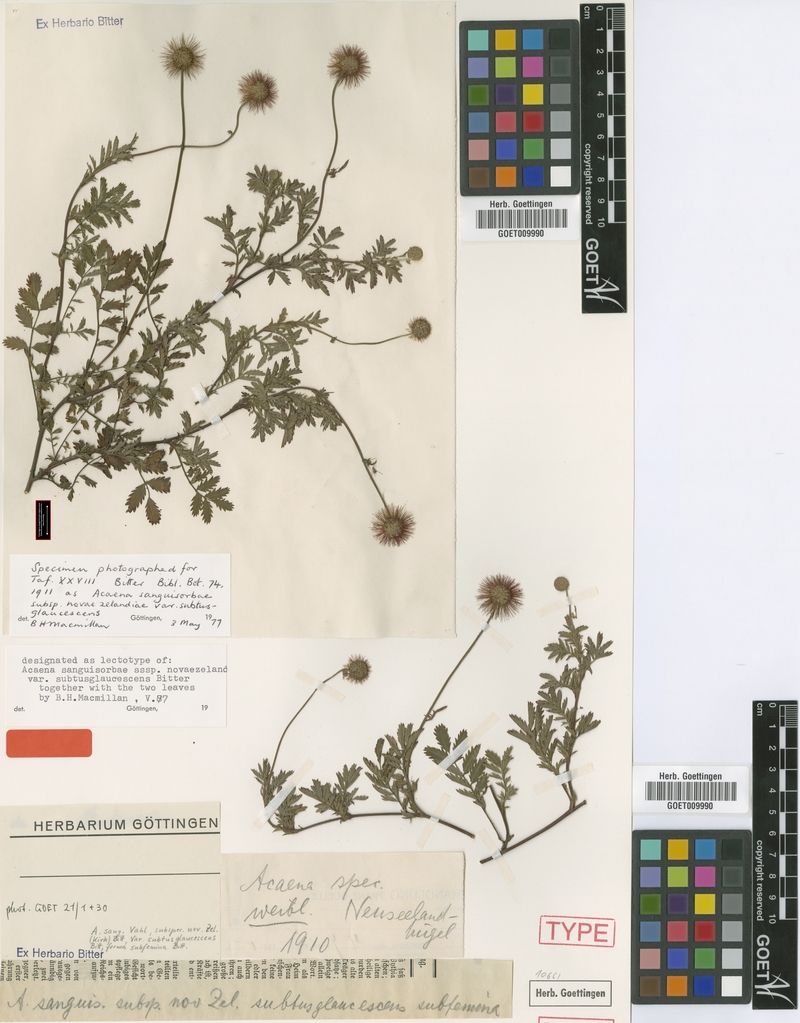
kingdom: Plantae
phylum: Tracheophyta
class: Magnoliopsida
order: Rosales
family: Rosaceae
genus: Acaena
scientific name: Acaena novae-zelandiae
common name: Pirri-pirri-bur
